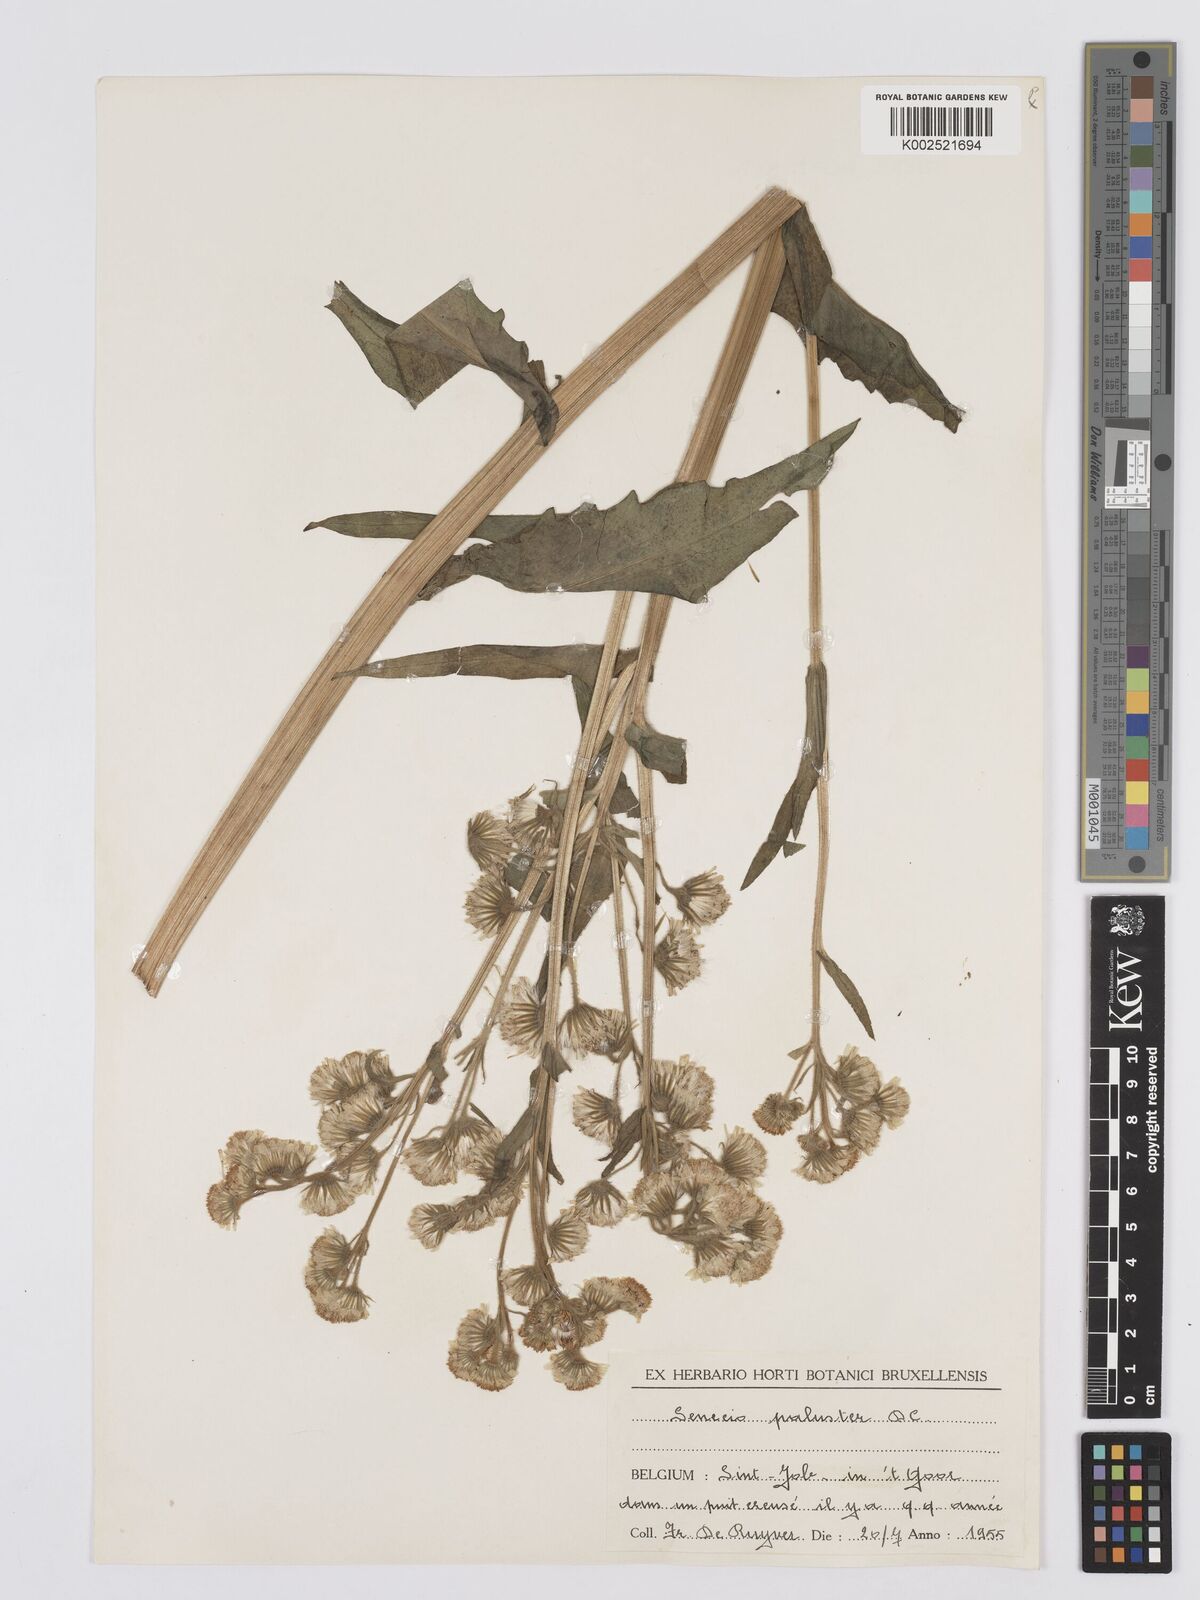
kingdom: Plantae
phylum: Tracheophyta
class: Magnoliopsida
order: Asterales
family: Asteraceae
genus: Tephroseris
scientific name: Tephroseris palustris
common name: Marsh fleawort
